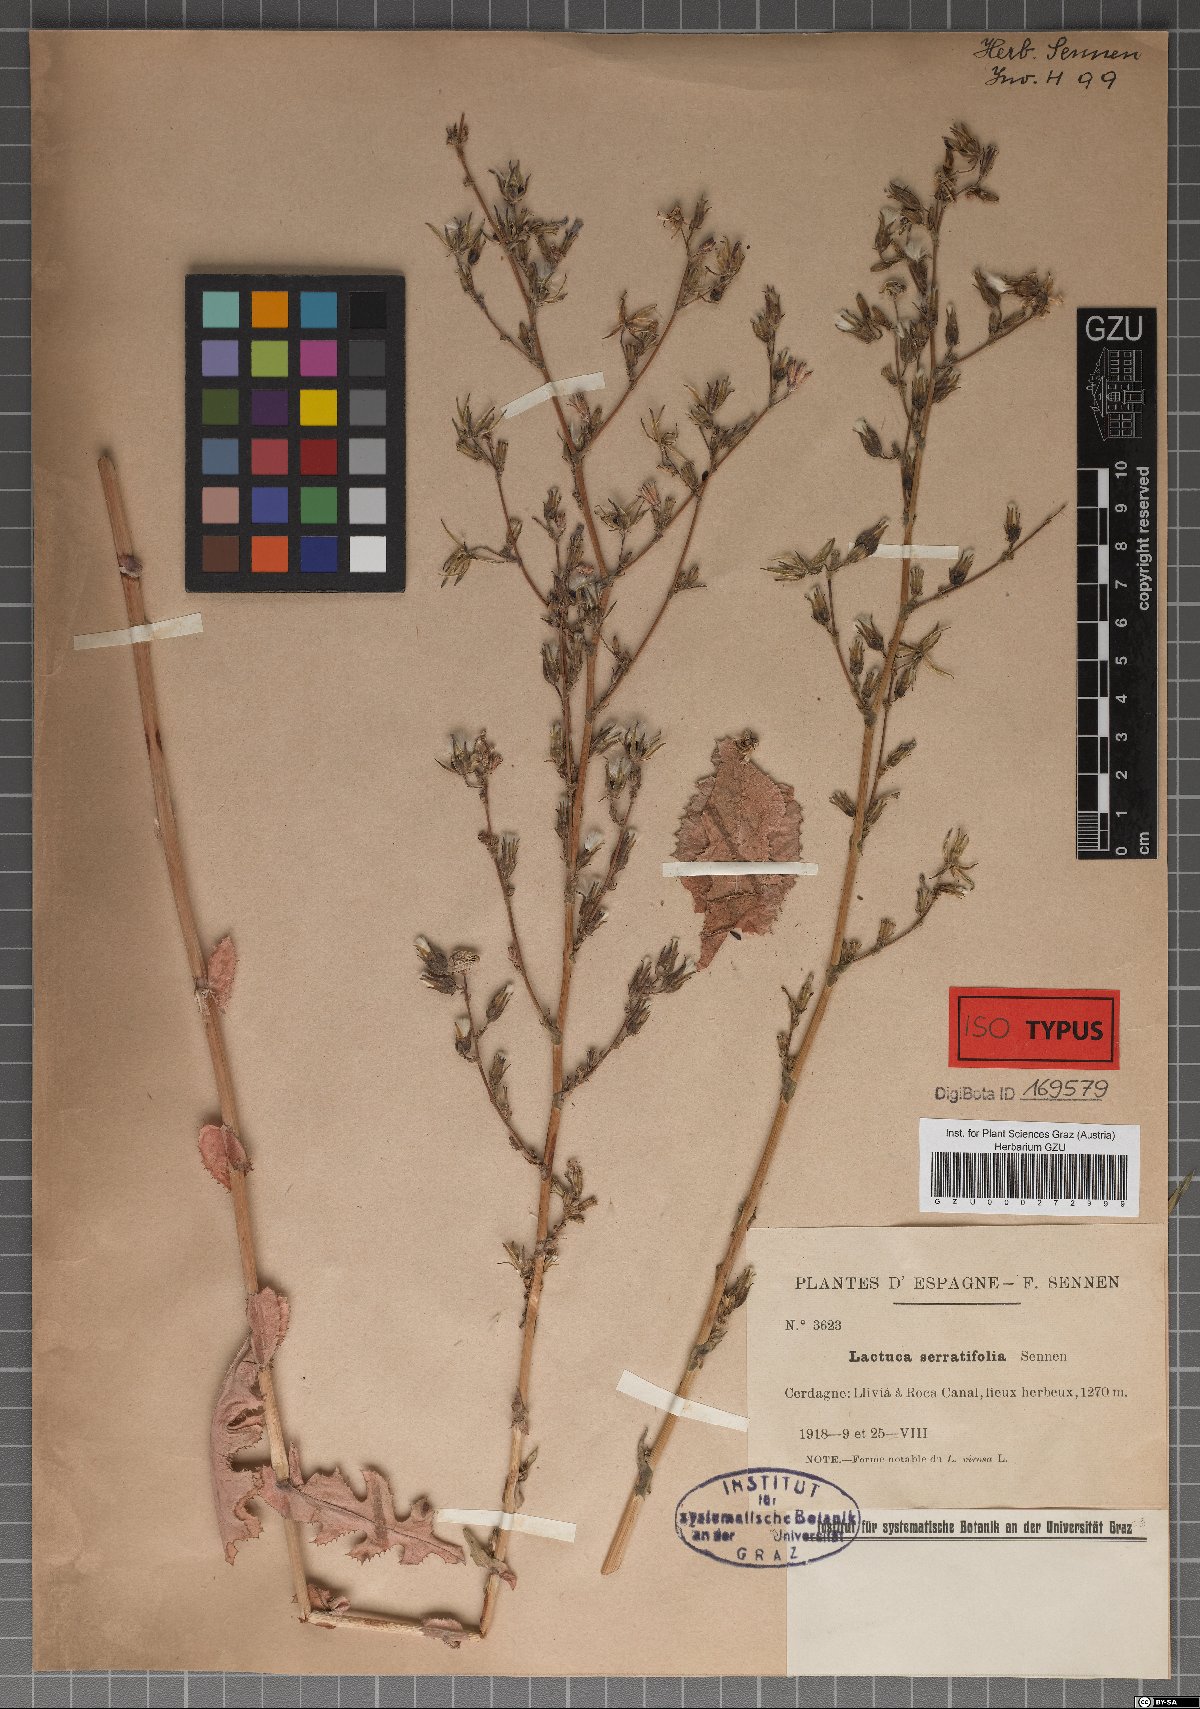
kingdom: Plantae
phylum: Tracheophyta
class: Magnoliopsida
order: Asterales
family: Asteraceae
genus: Lactuca
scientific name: Lactuca virosa
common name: Great lettuce
